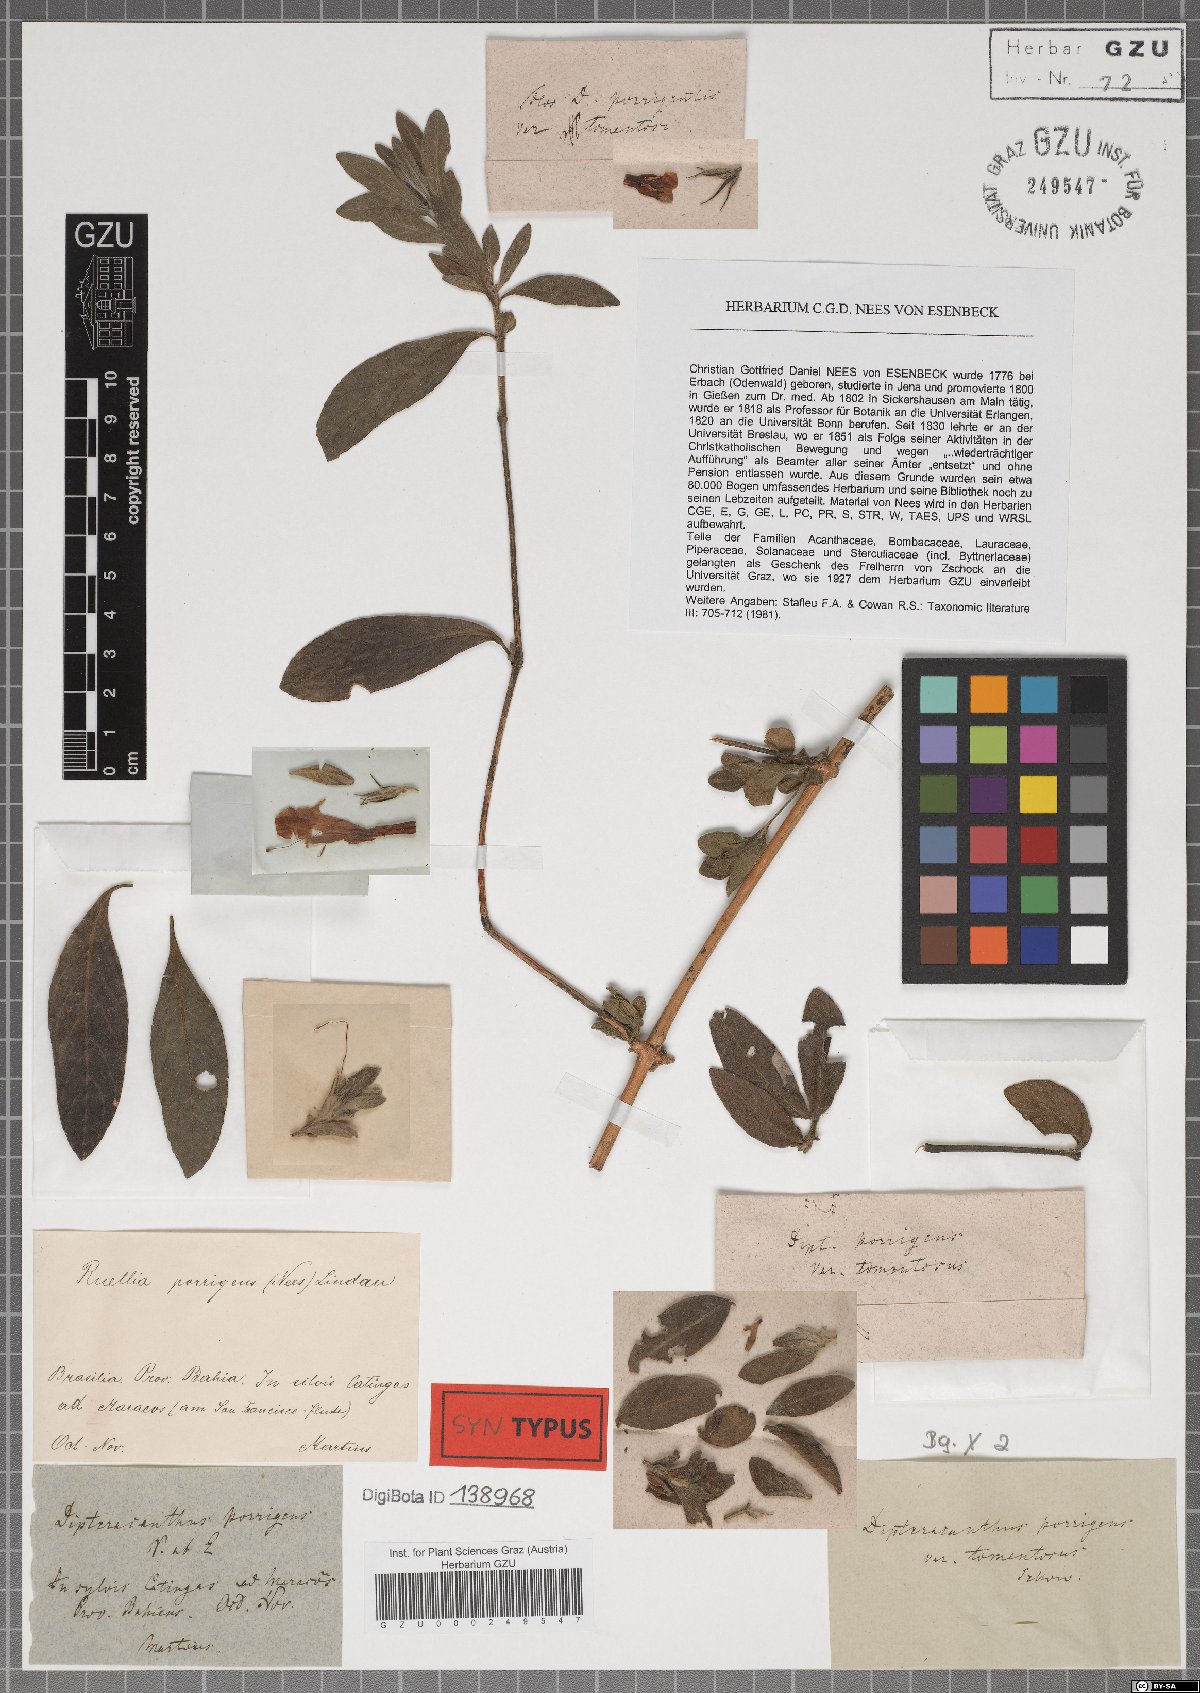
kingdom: Plantae
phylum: Tracheophyta
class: Magnoliopsida
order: Lamiales
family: Acanthaceae
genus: Ruellia
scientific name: Ruellia geminiflora
